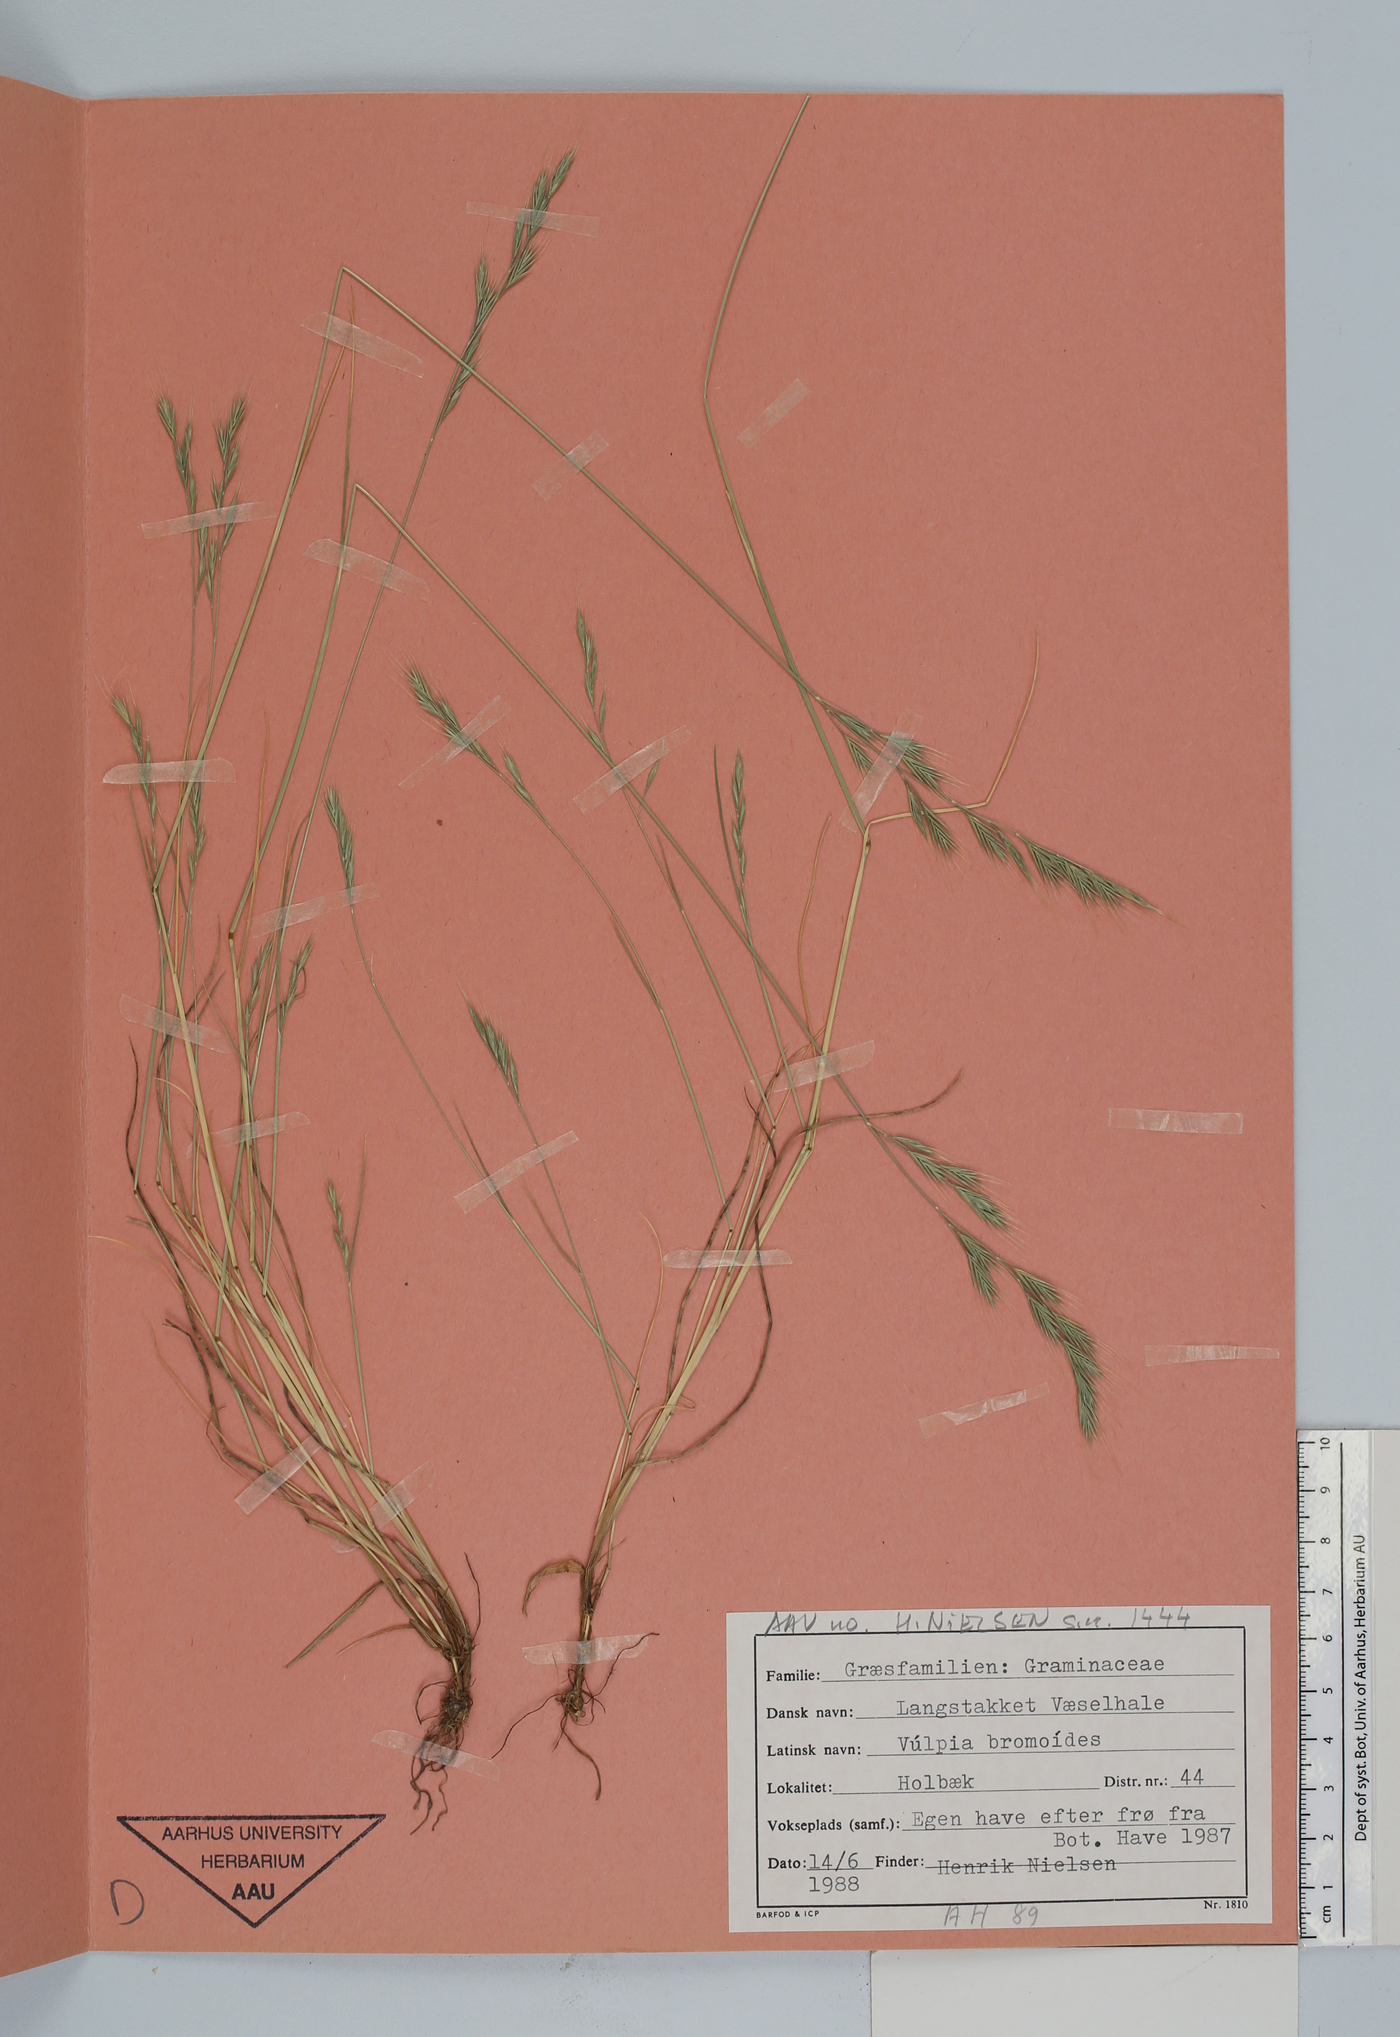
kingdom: Plantae
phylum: Tracheophyta
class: Liliopsida
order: Poales
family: Poaceae
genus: Festuca
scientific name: Festuca bromoides
